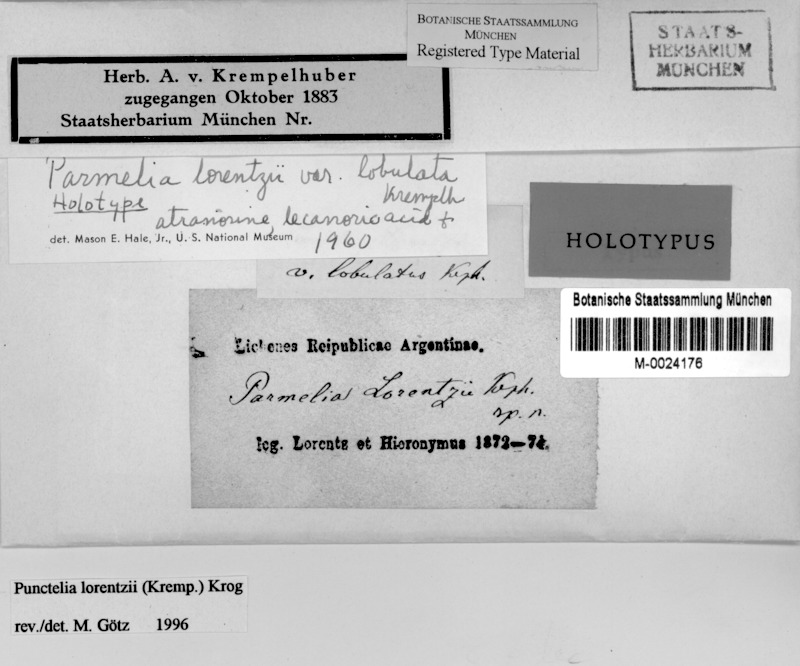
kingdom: Fungi
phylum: Ascomycota
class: Lecanoromycetes
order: Lecanorales
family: Parmeliaceae
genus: Punctelia
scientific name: Punctelia
